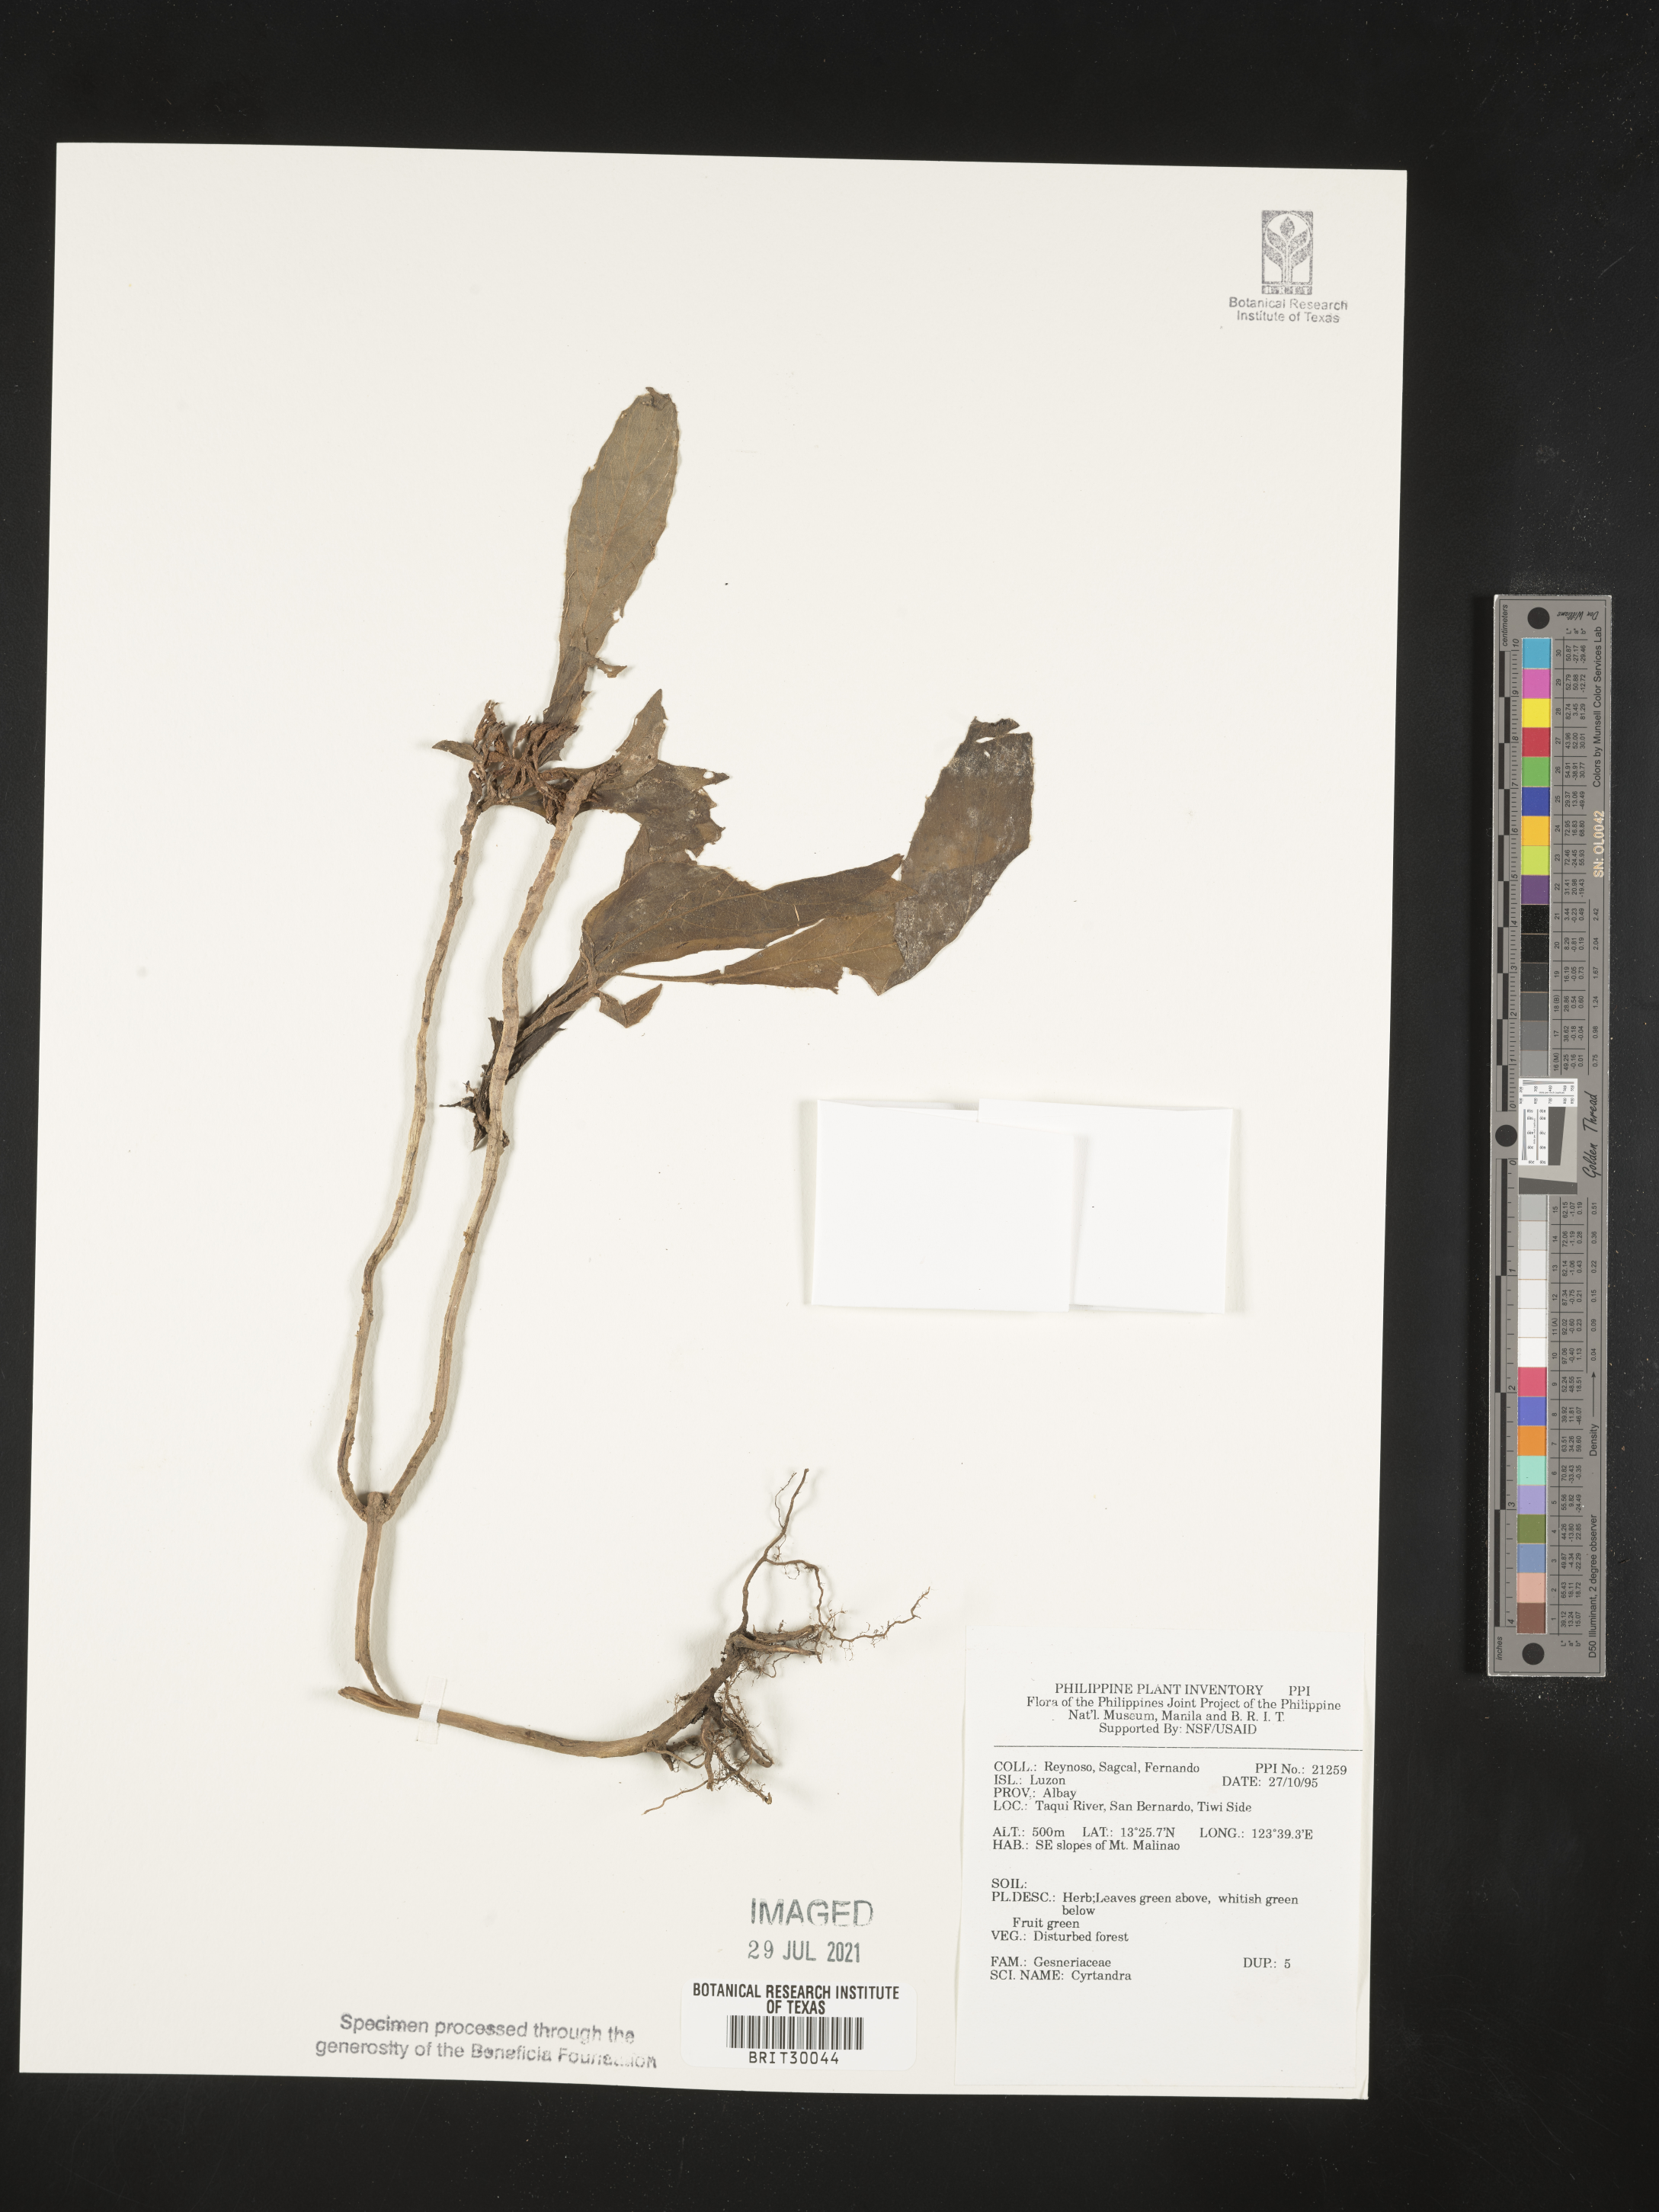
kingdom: Plantae
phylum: Tracheophyta
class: Magnoliopsida
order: Lamiales
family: Gesneriaceae
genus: Cyrtandra
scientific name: Cyrtandra
